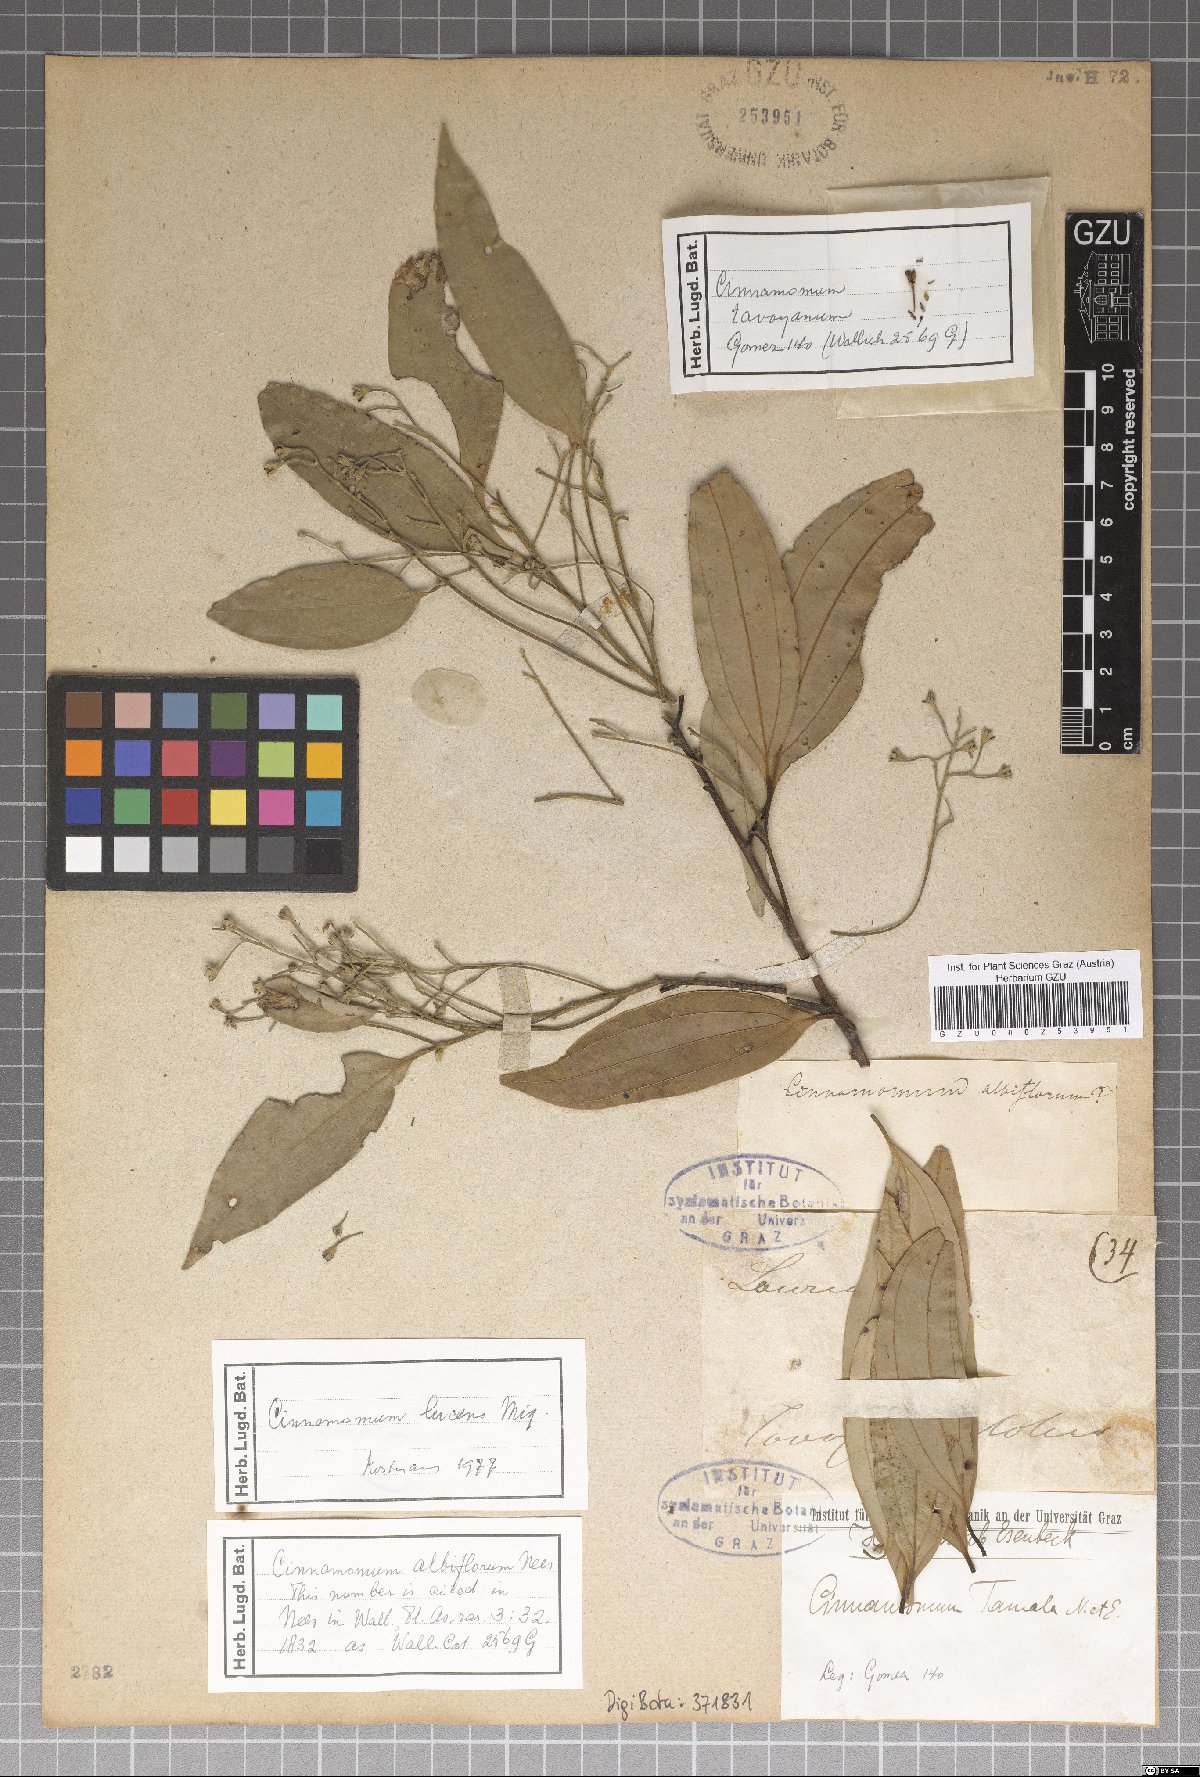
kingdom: Plantae
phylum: Tracheophyta
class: Magnoliopsida
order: Laurales
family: Lauraceae
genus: Cinnamomum
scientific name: Cinnamomum lucens
